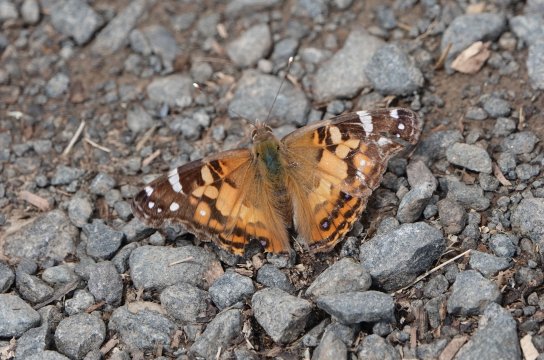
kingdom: Animalia
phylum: Arthropoda
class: Insecta
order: Lepidoptera
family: Nymphalidae
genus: Vanessa
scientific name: Vanessa virginiensis
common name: American Lady
